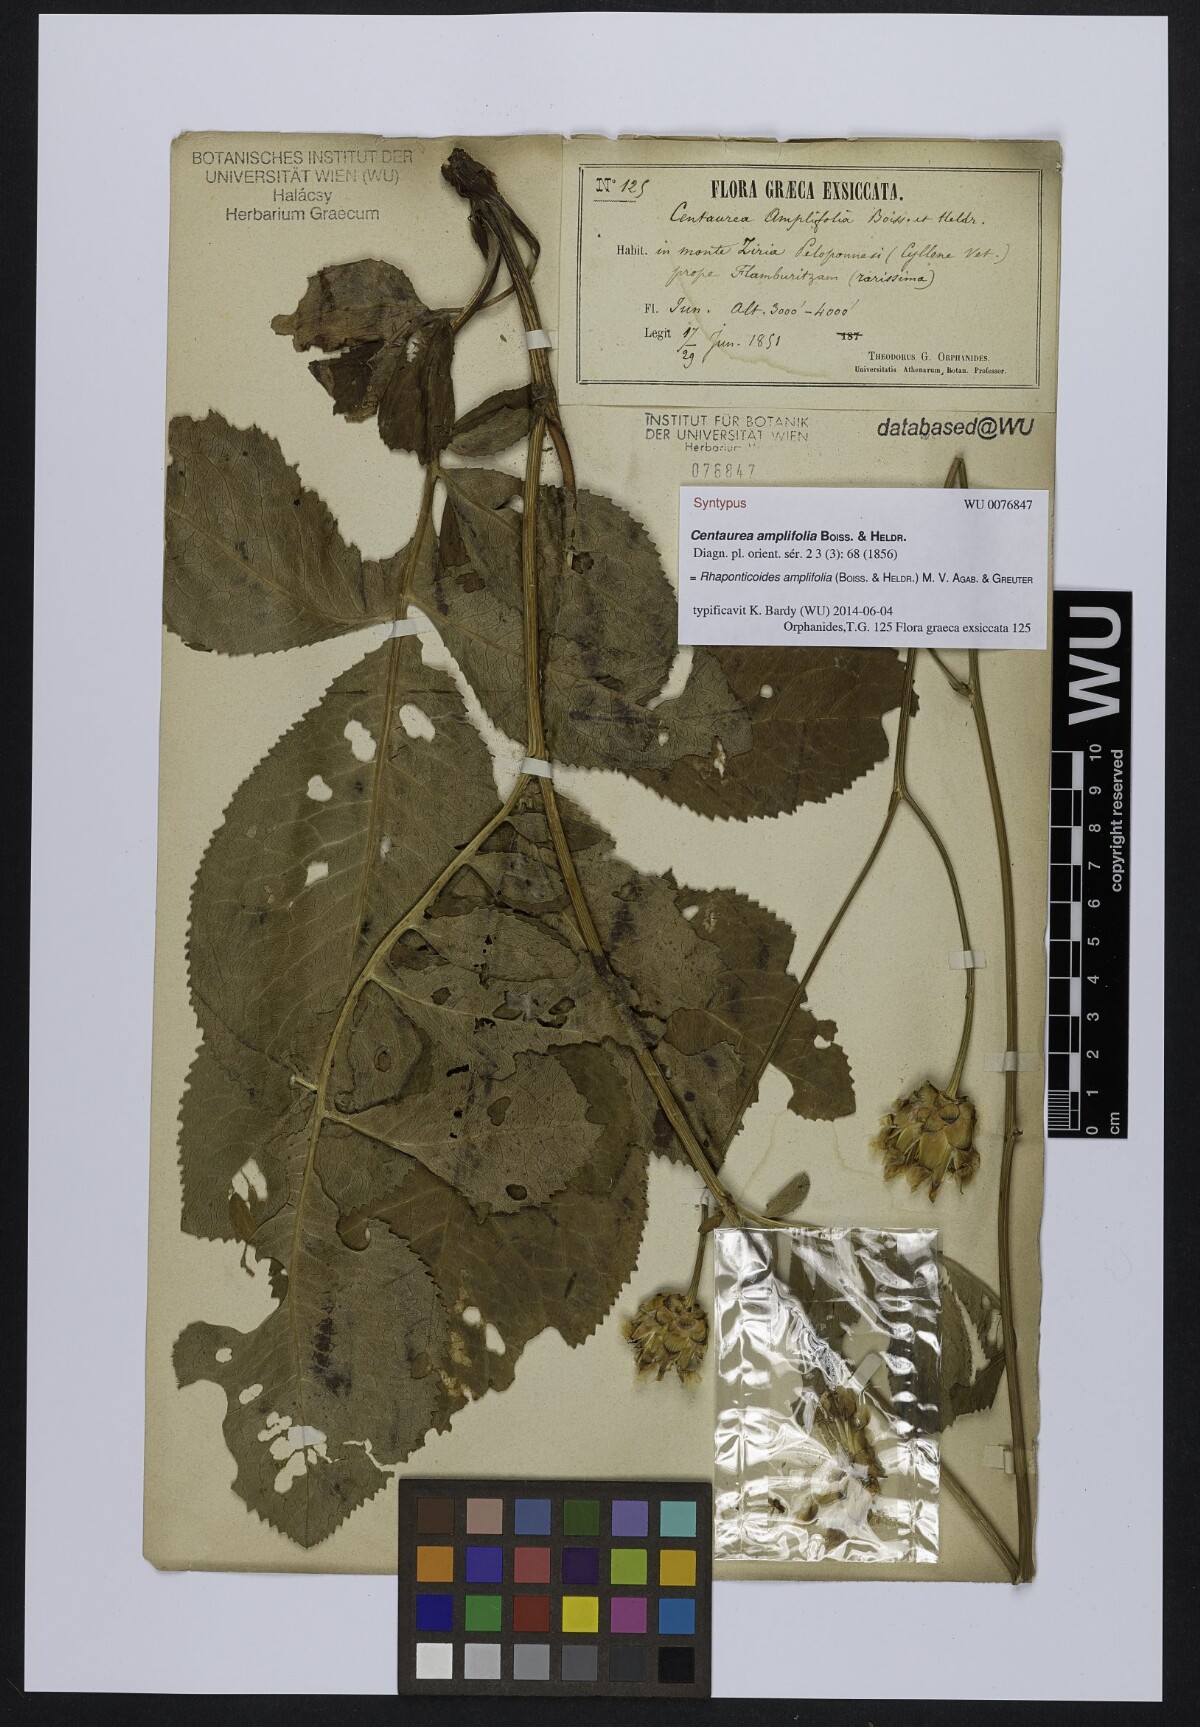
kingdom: Plantae
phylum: Tracheophyta
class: Magnoliopsida
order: Asterales
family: Asteraceae
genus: Rhaponticoides
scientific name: Rhaponticoides amplifolia
